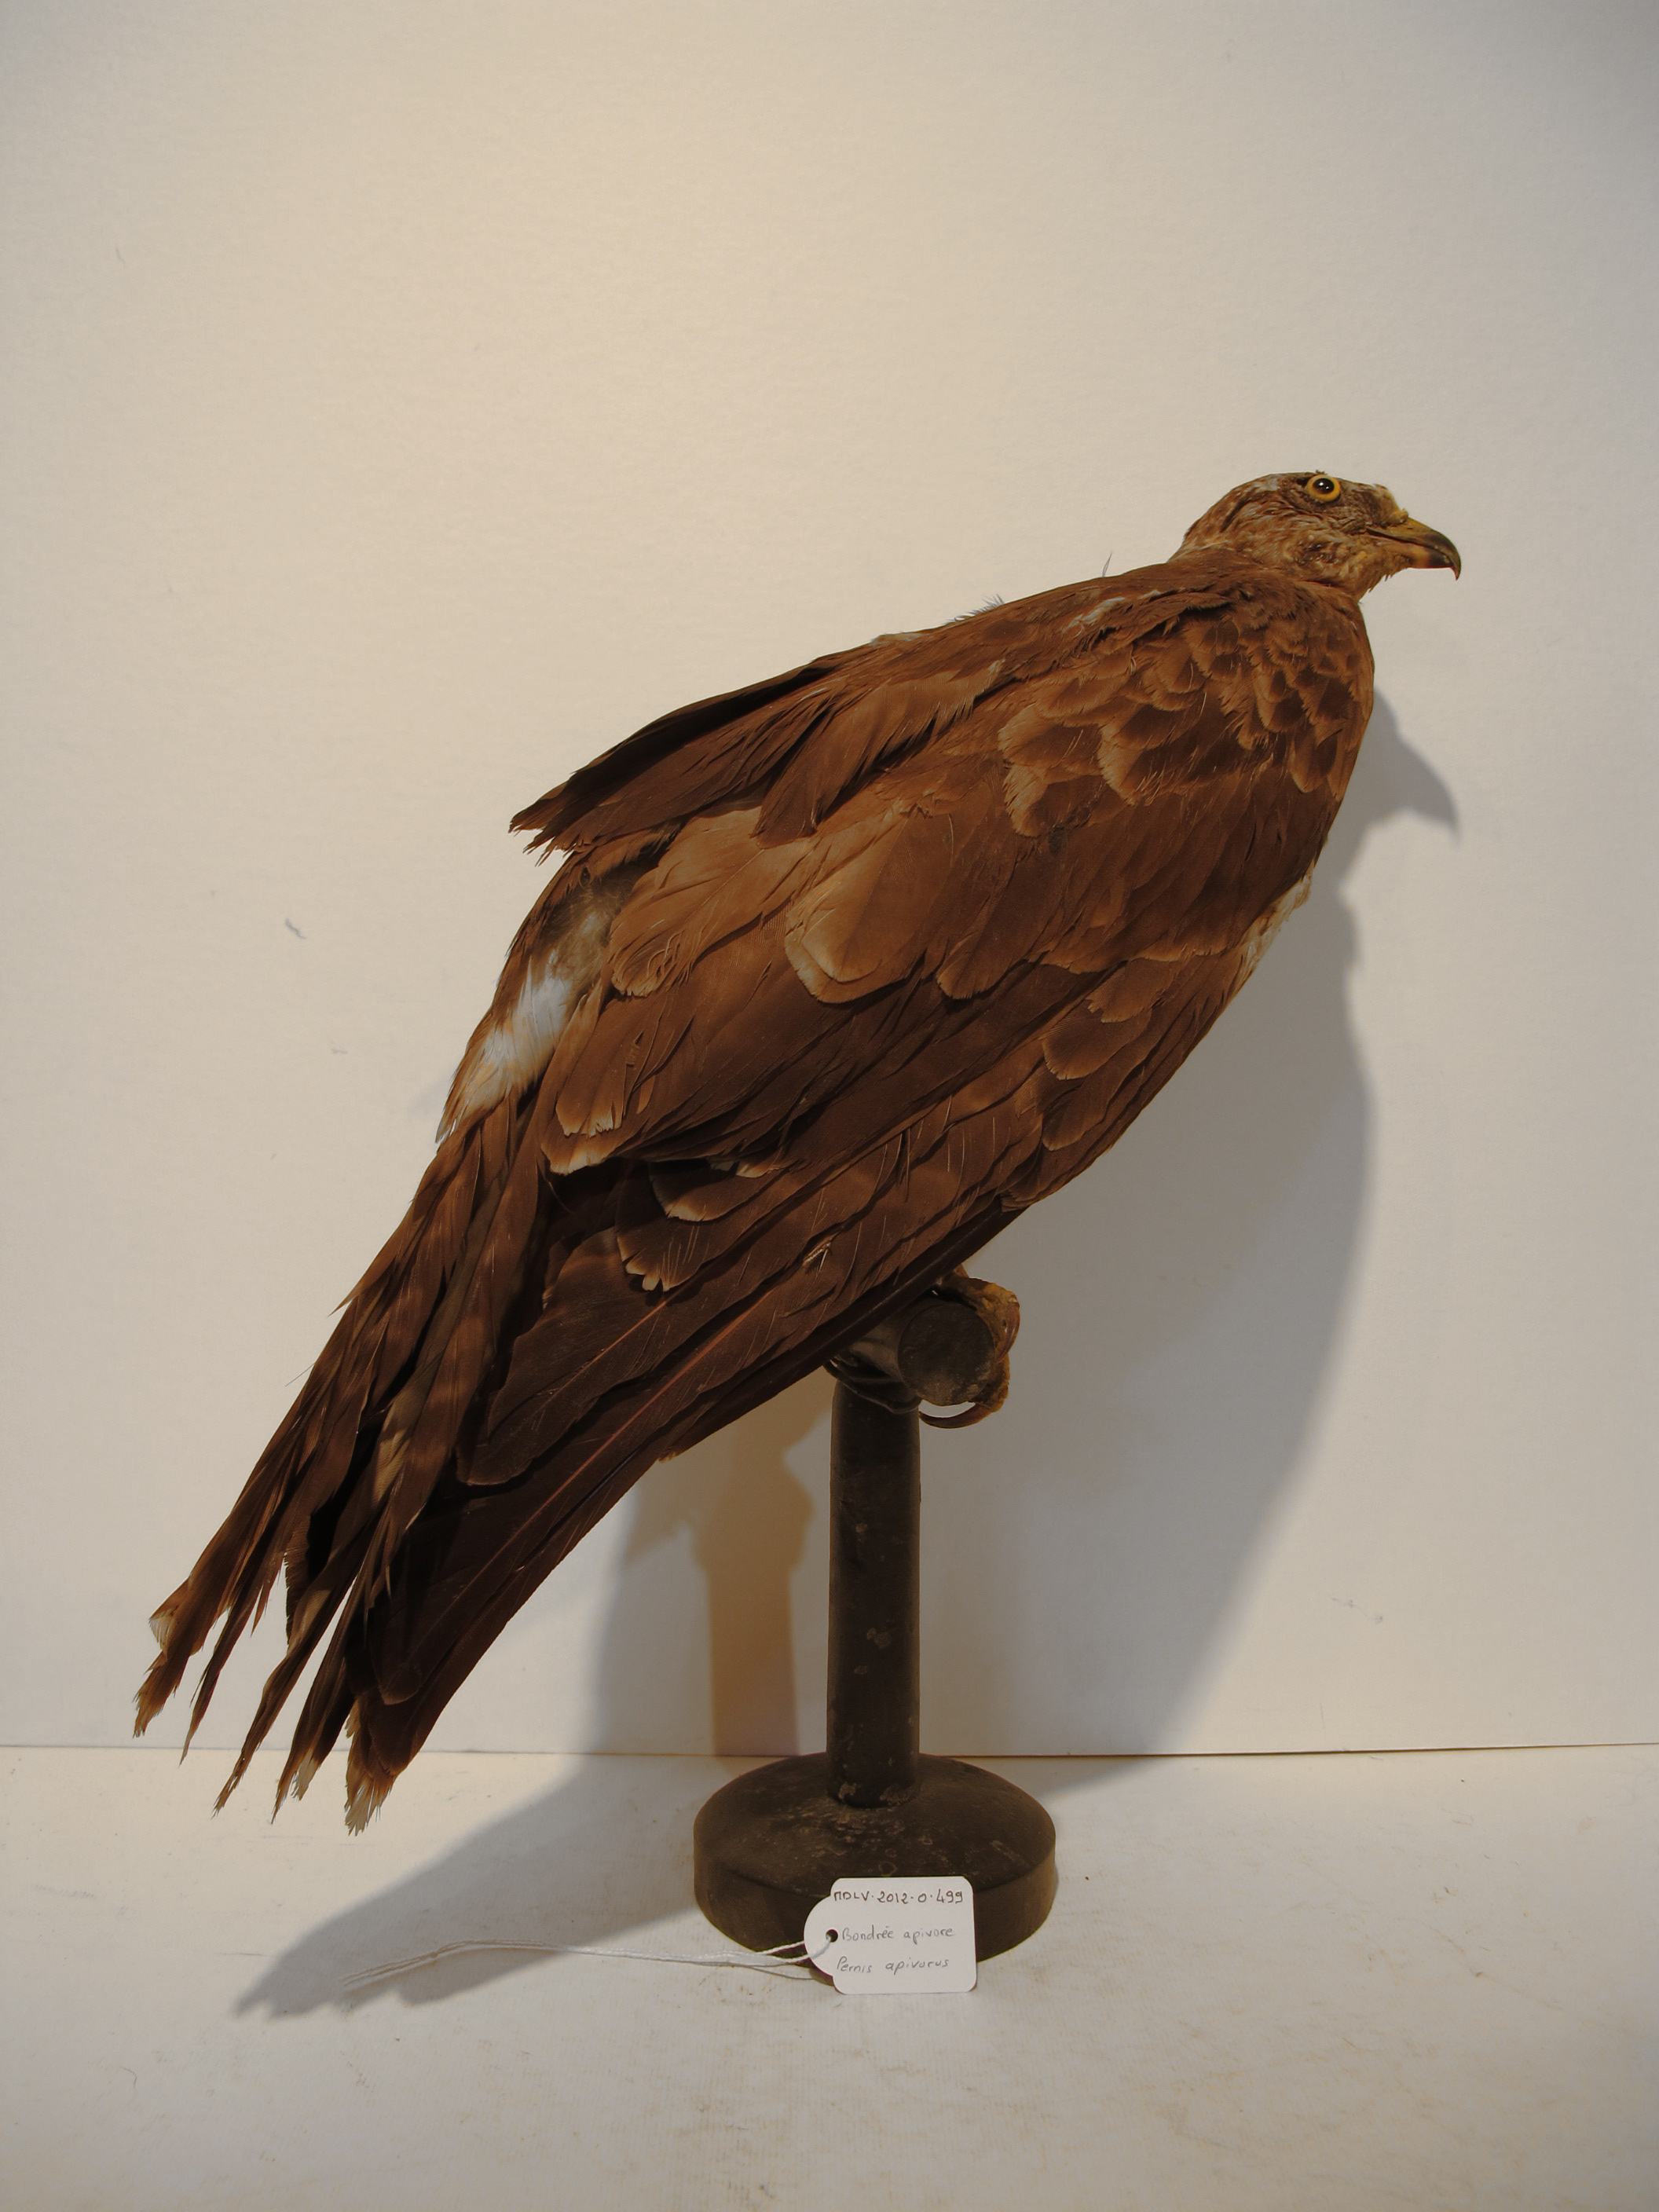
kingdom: Animalia
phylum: Chordata
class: Aves
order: Accipitriformes
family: Accipitridae
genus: Pernis
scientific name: Pernis apivorus
